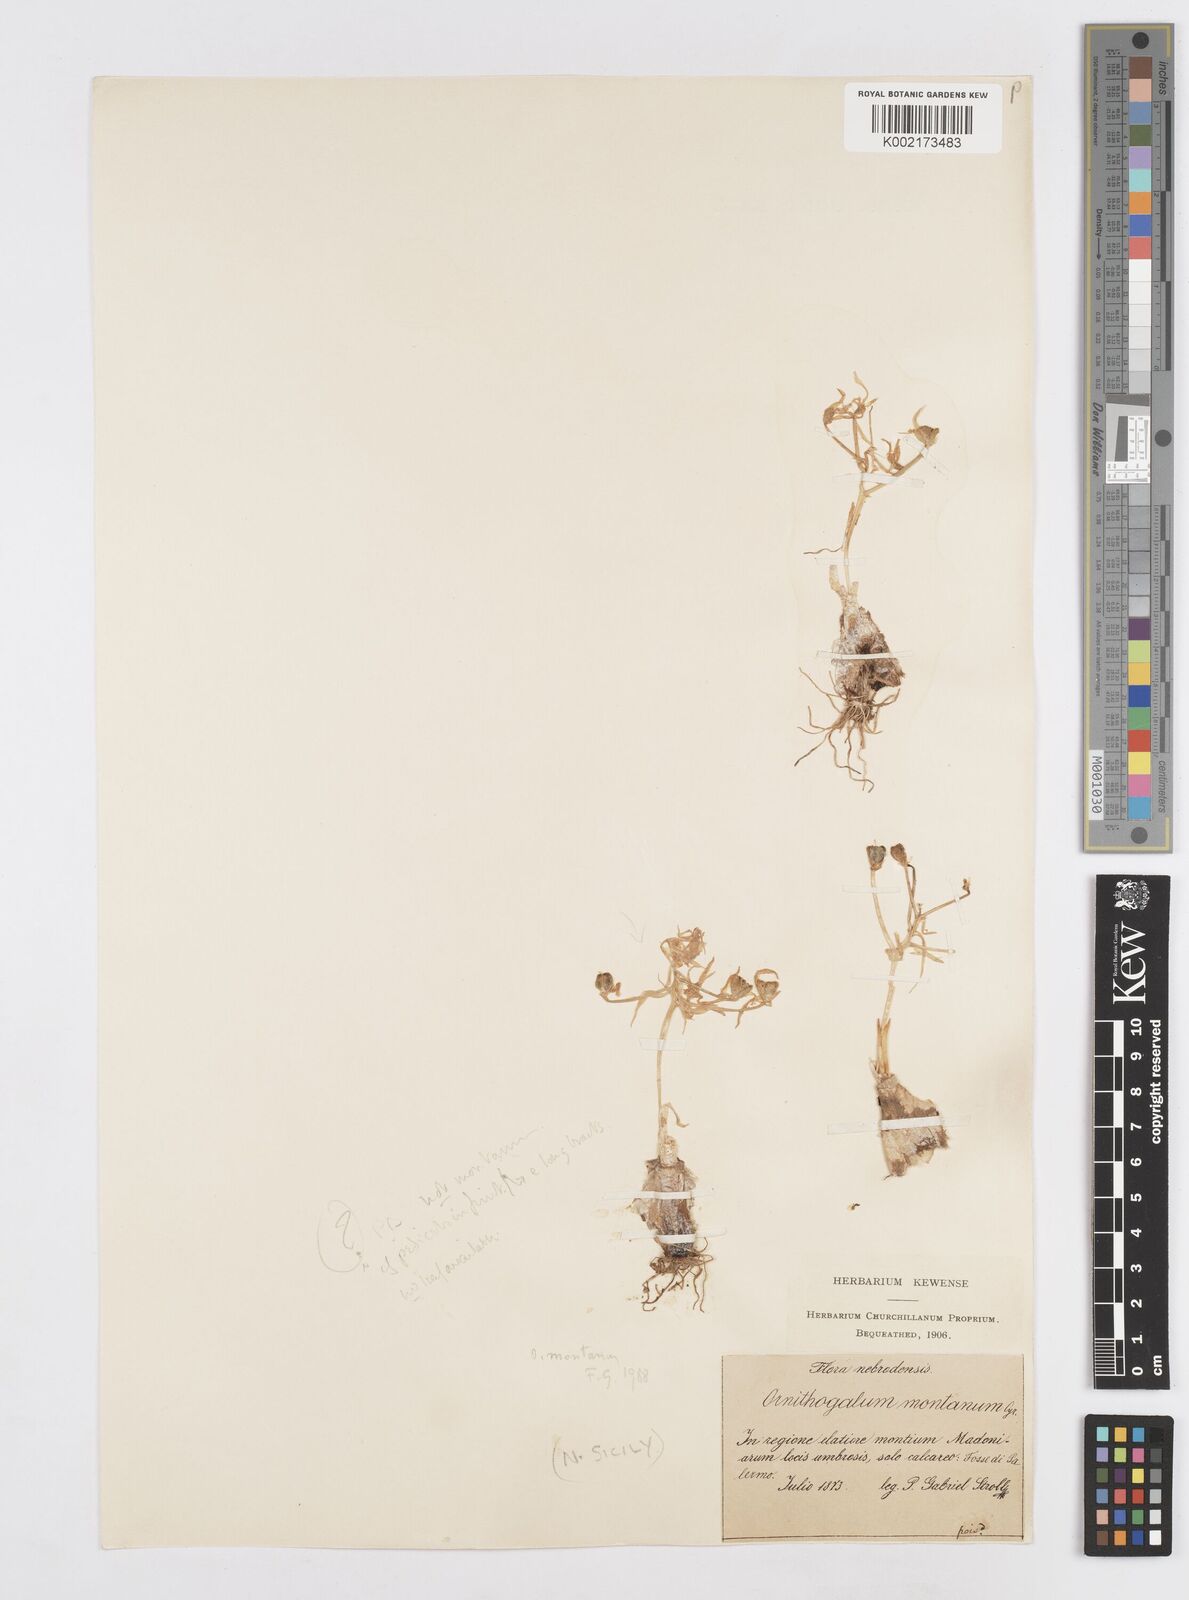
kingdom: Plantae
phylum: Tracheophyta
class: Liliopsida
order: Asparagales
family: Asparagaceae
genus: Ornithogalum
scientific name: Ornithogalum montanum
